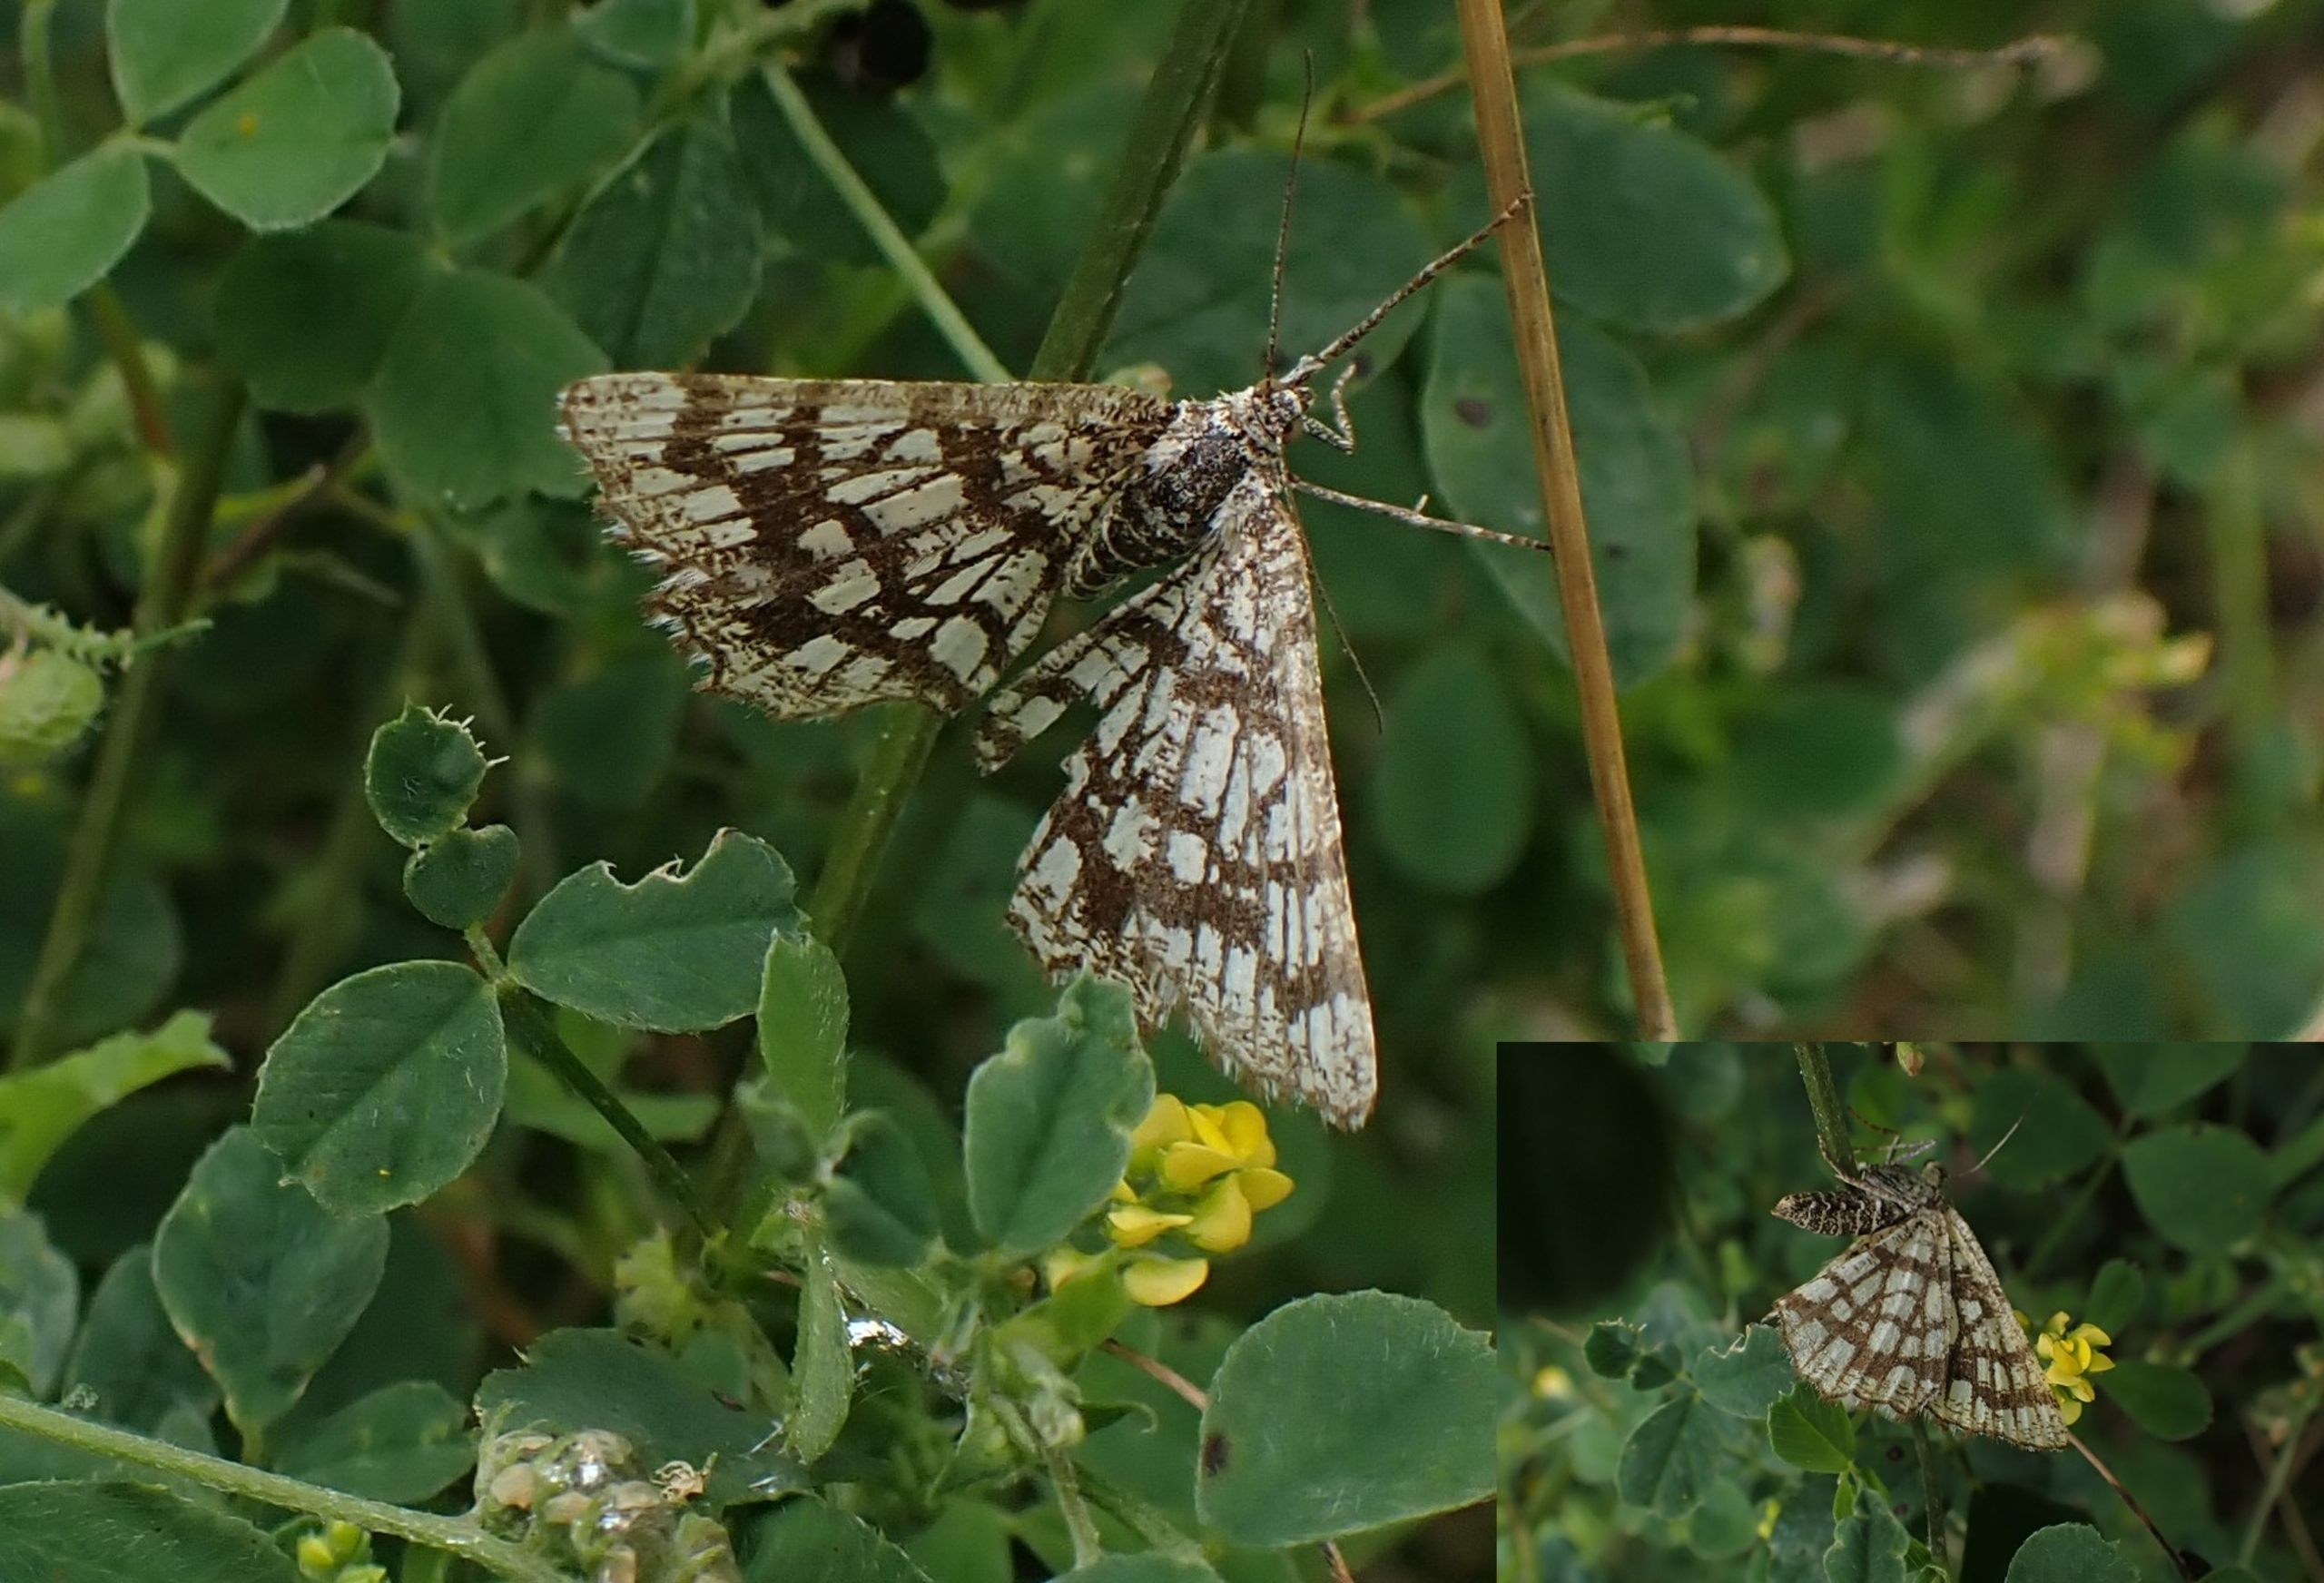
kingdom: Animalia
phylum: Arthropoda
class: Insecta
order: Lepidoptera
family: Geometridae
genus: Chiasmia
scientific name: Chiasmia clathrata
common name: Kløvermåler
